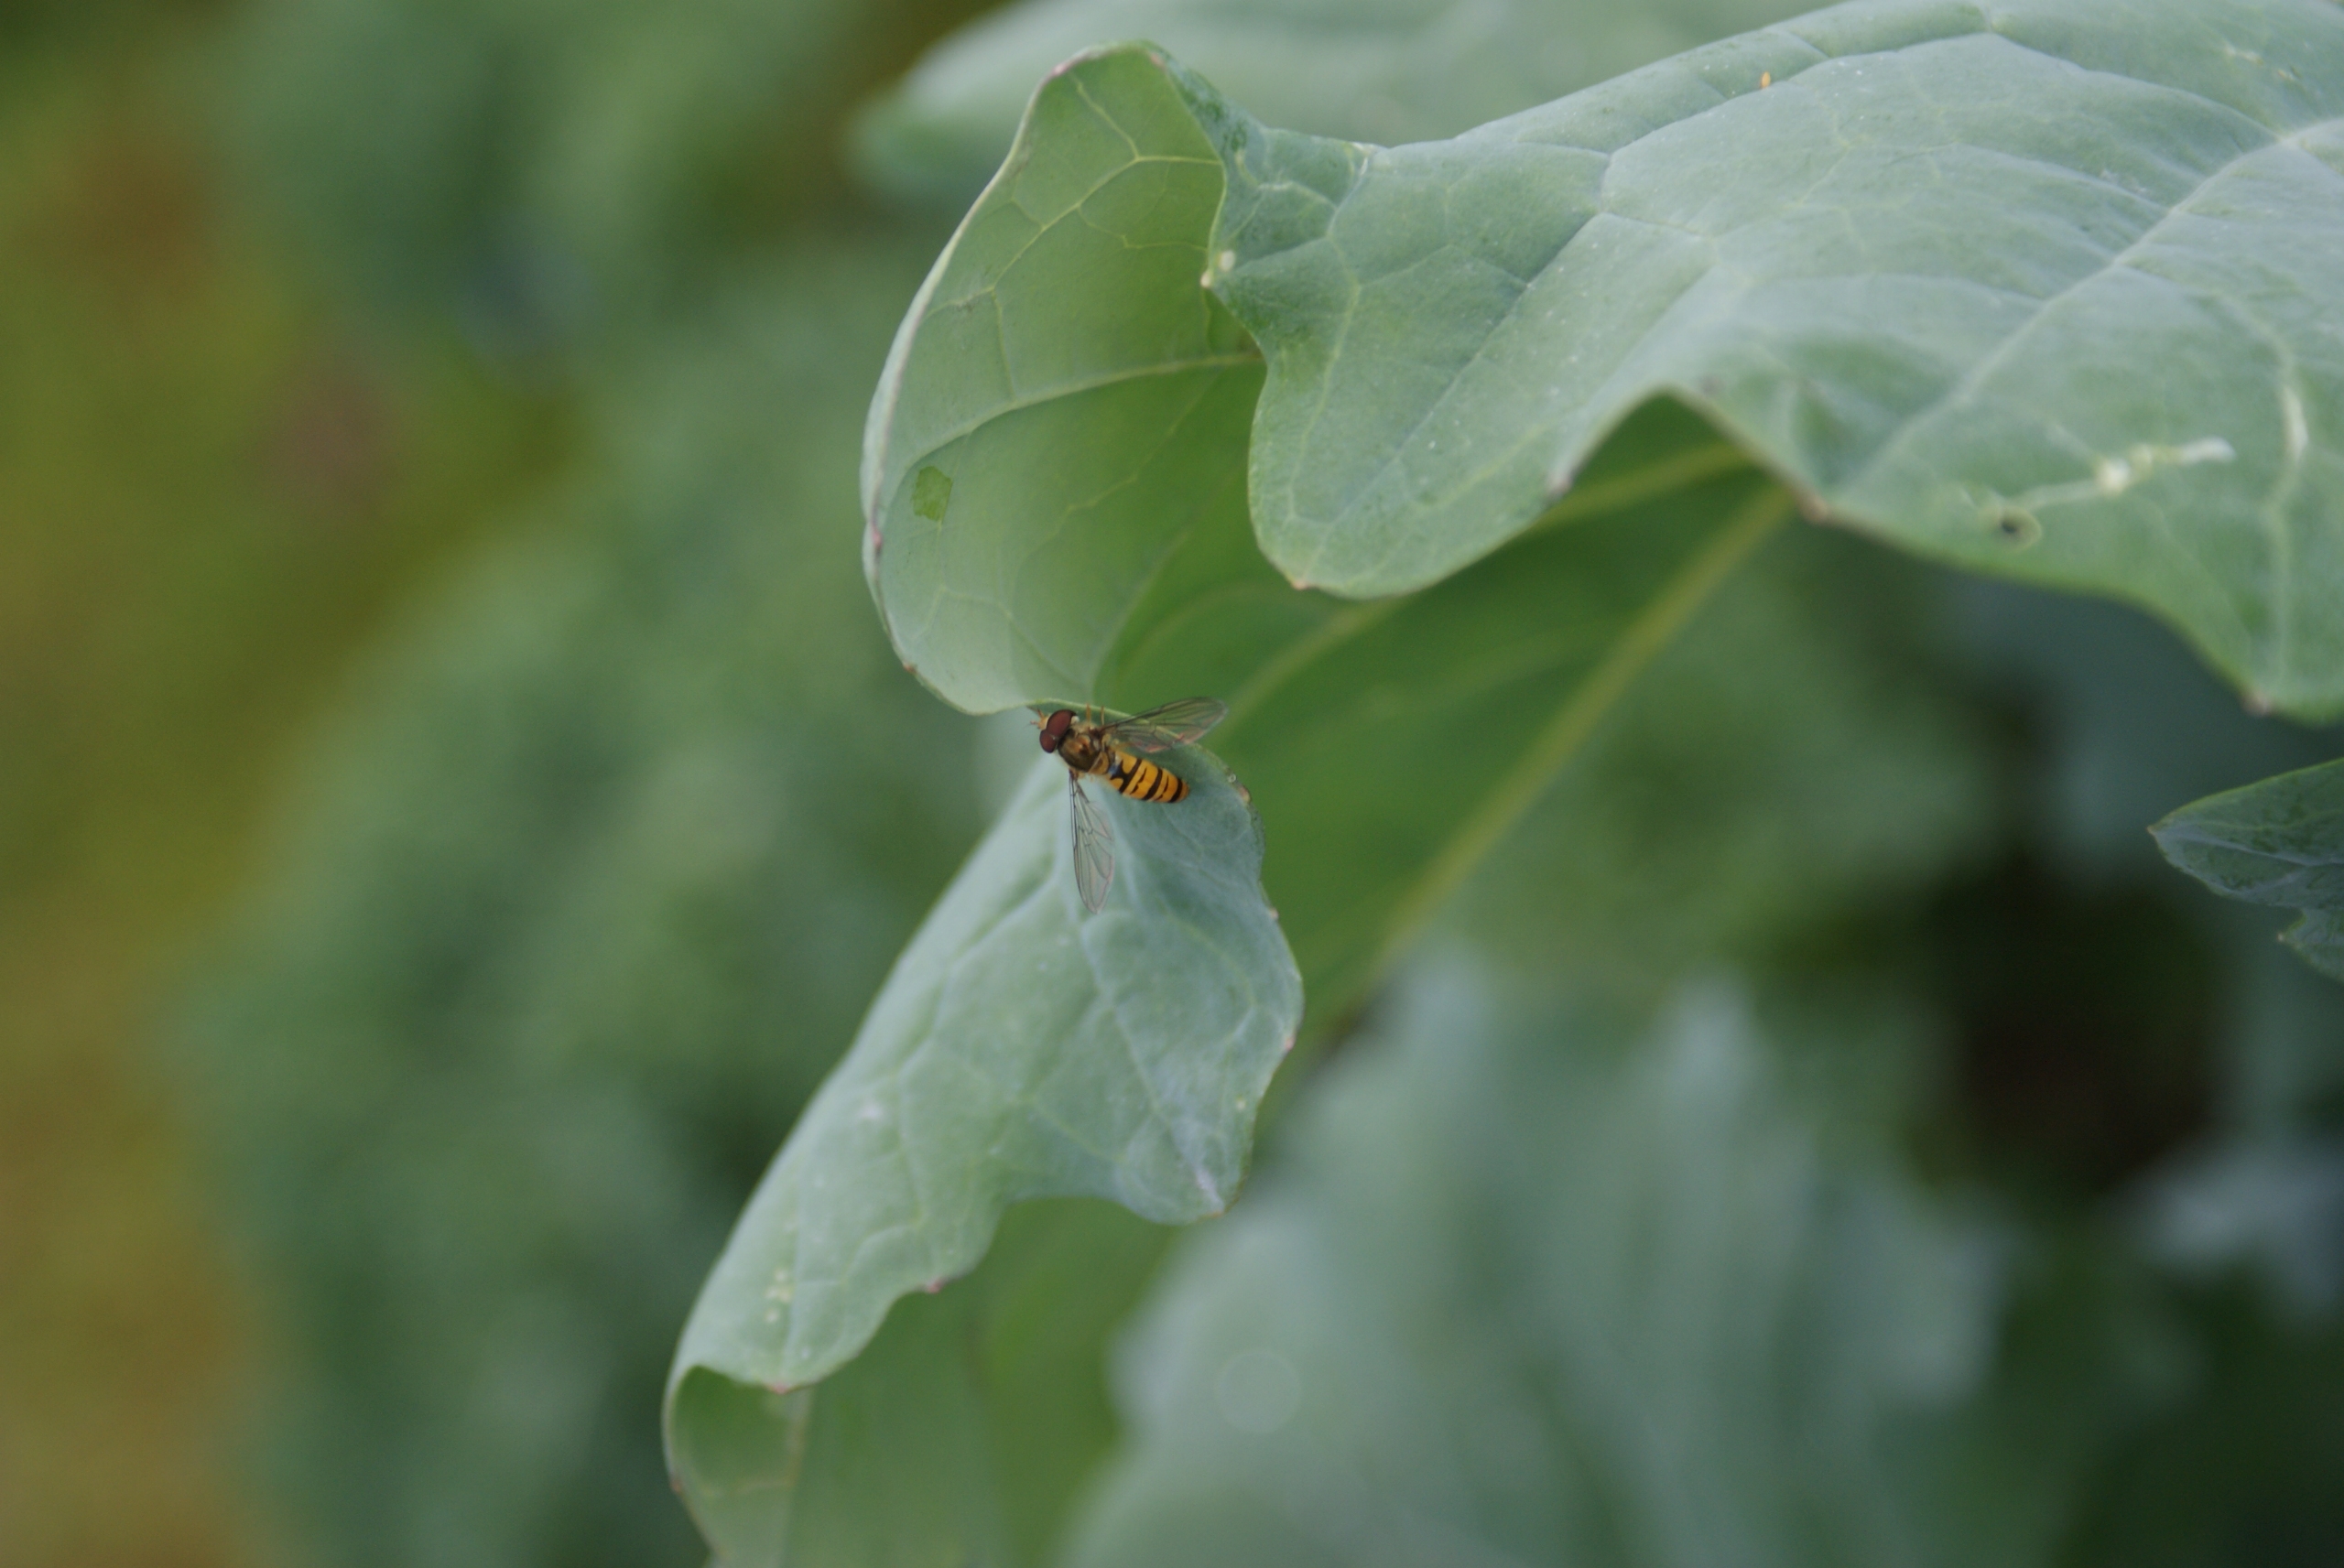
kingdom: Animalia
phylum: Arthropoda
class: Insecta
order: Diptera
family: Syrphidae
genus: Episyrphus
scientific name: Episyrphus balteatus
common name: Dobbeltbåndet svirreflue
